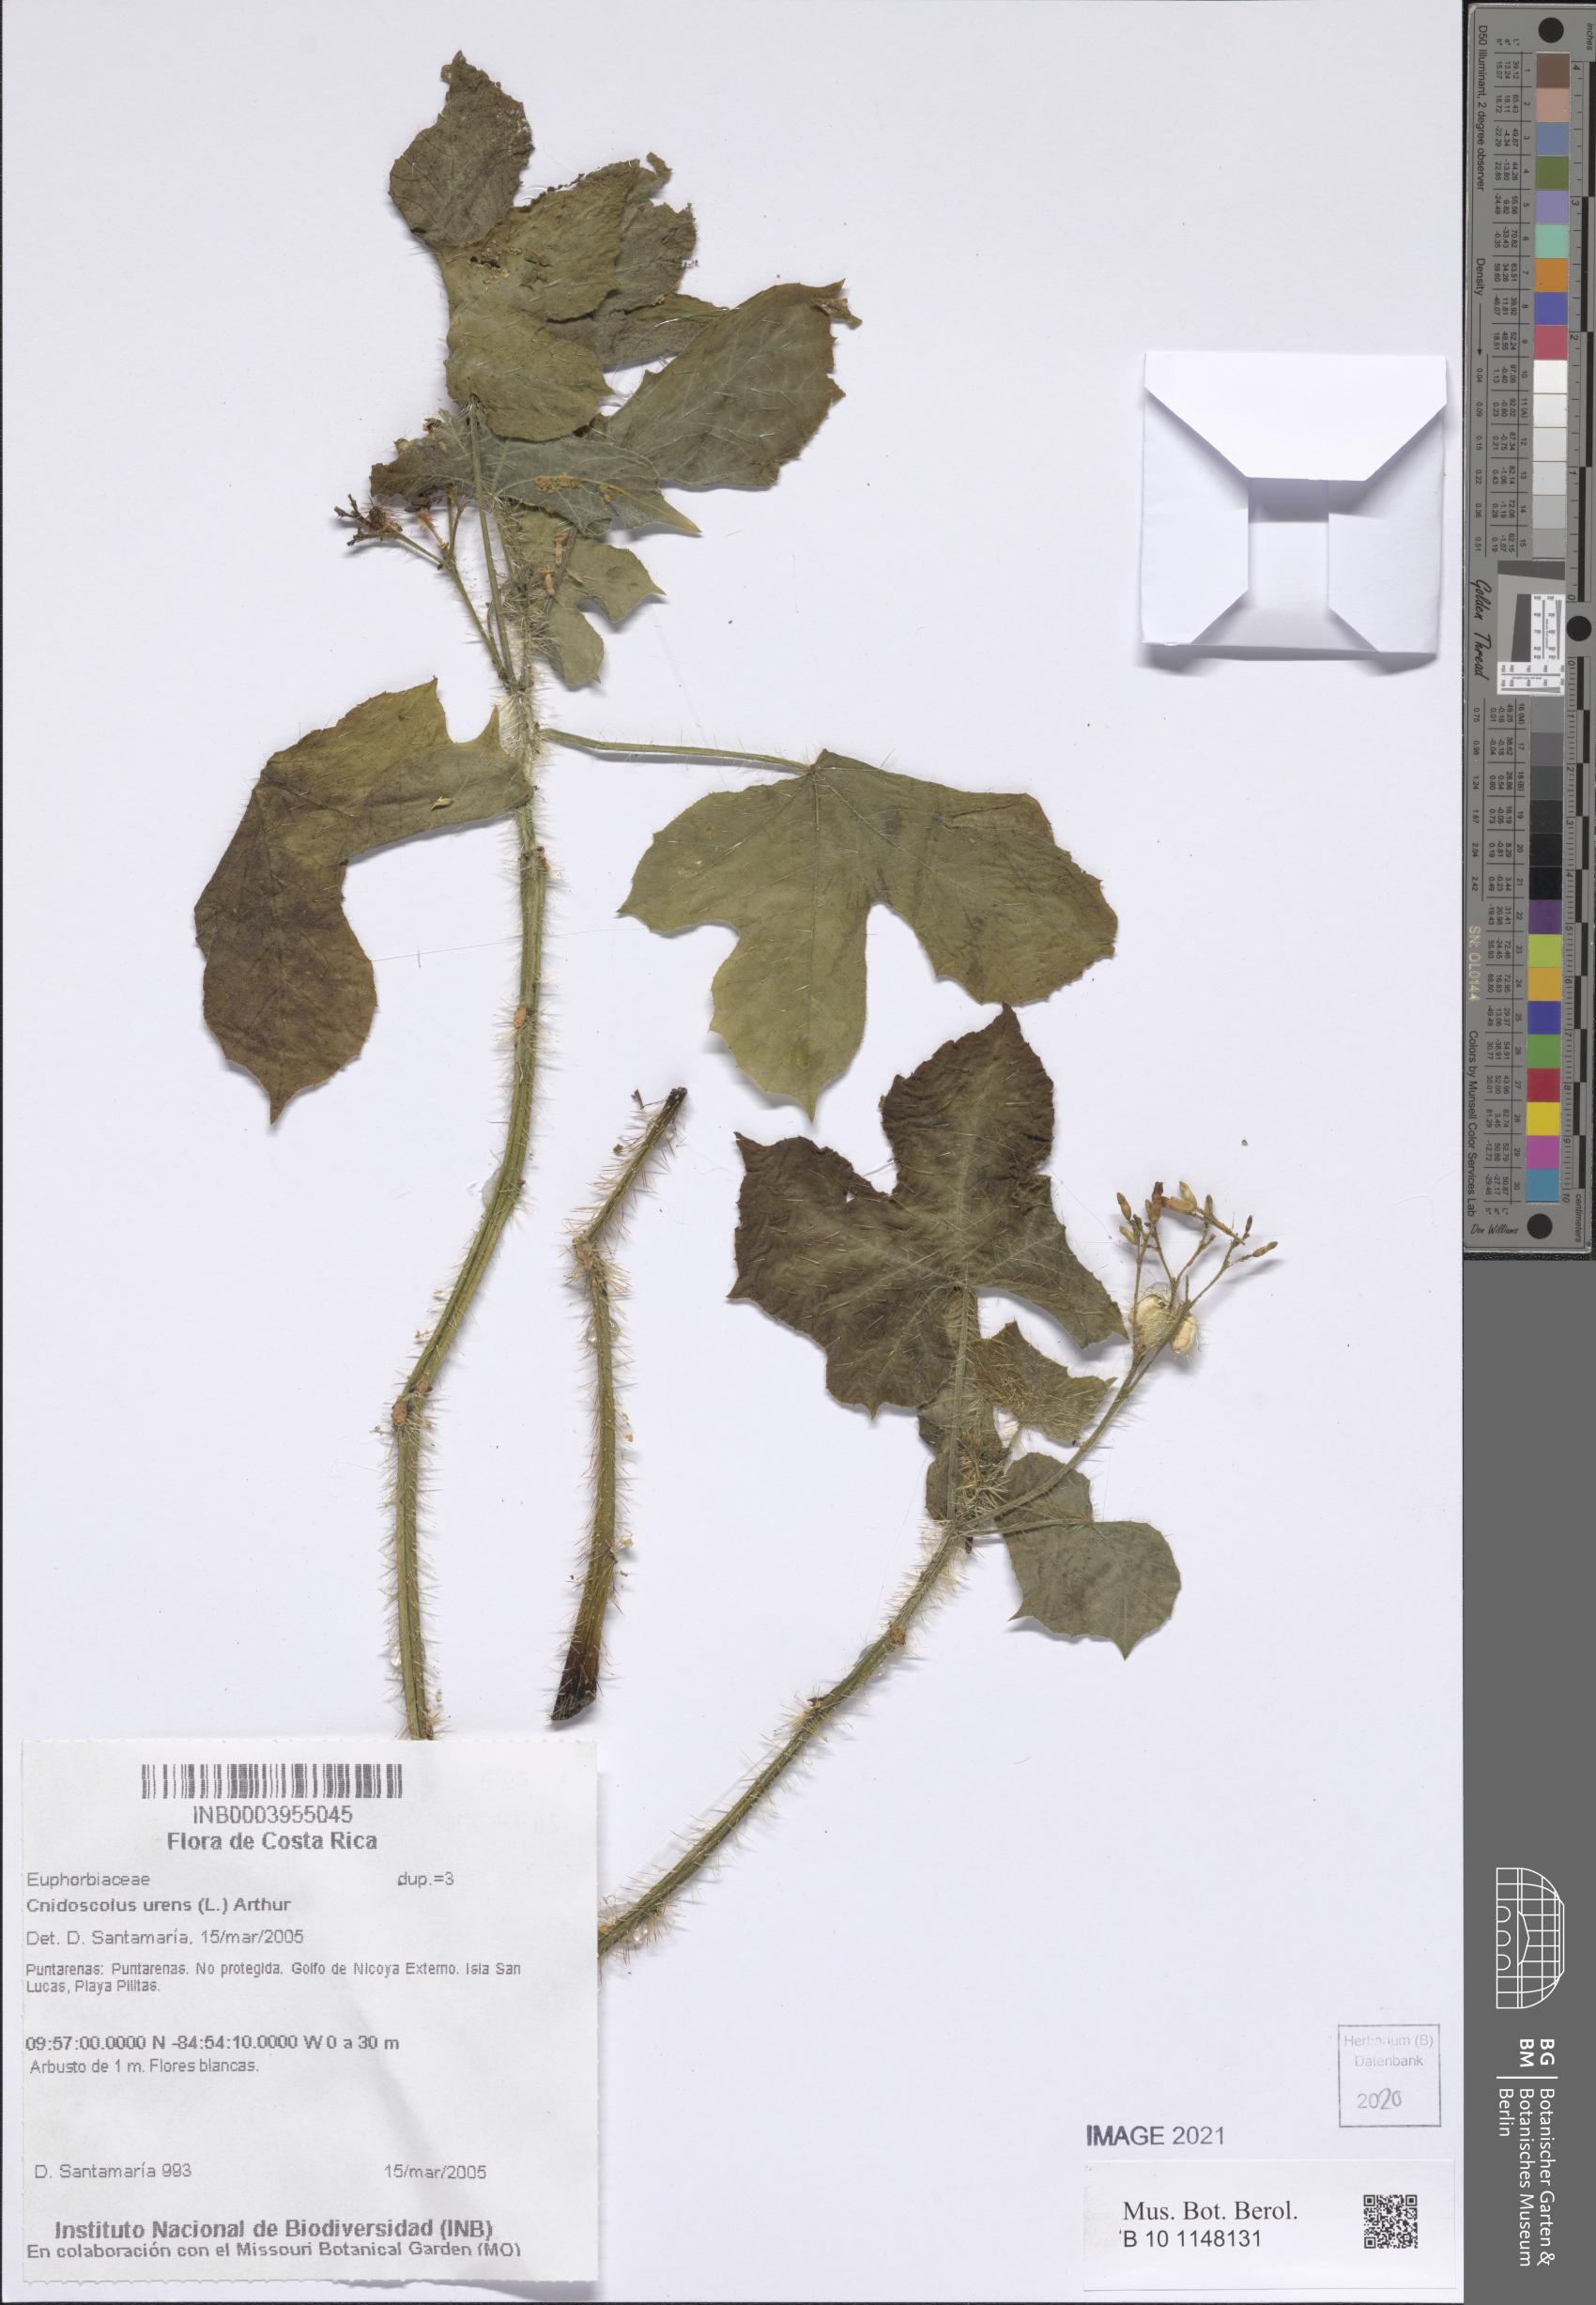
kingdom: Plantae
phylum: Tracheophyta
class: Magnoliopsida
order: Malpighiales
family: Euphorbiaceae
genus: Cnidoscolus
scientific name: Cnidoscolus urens
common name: Bull-nettle
